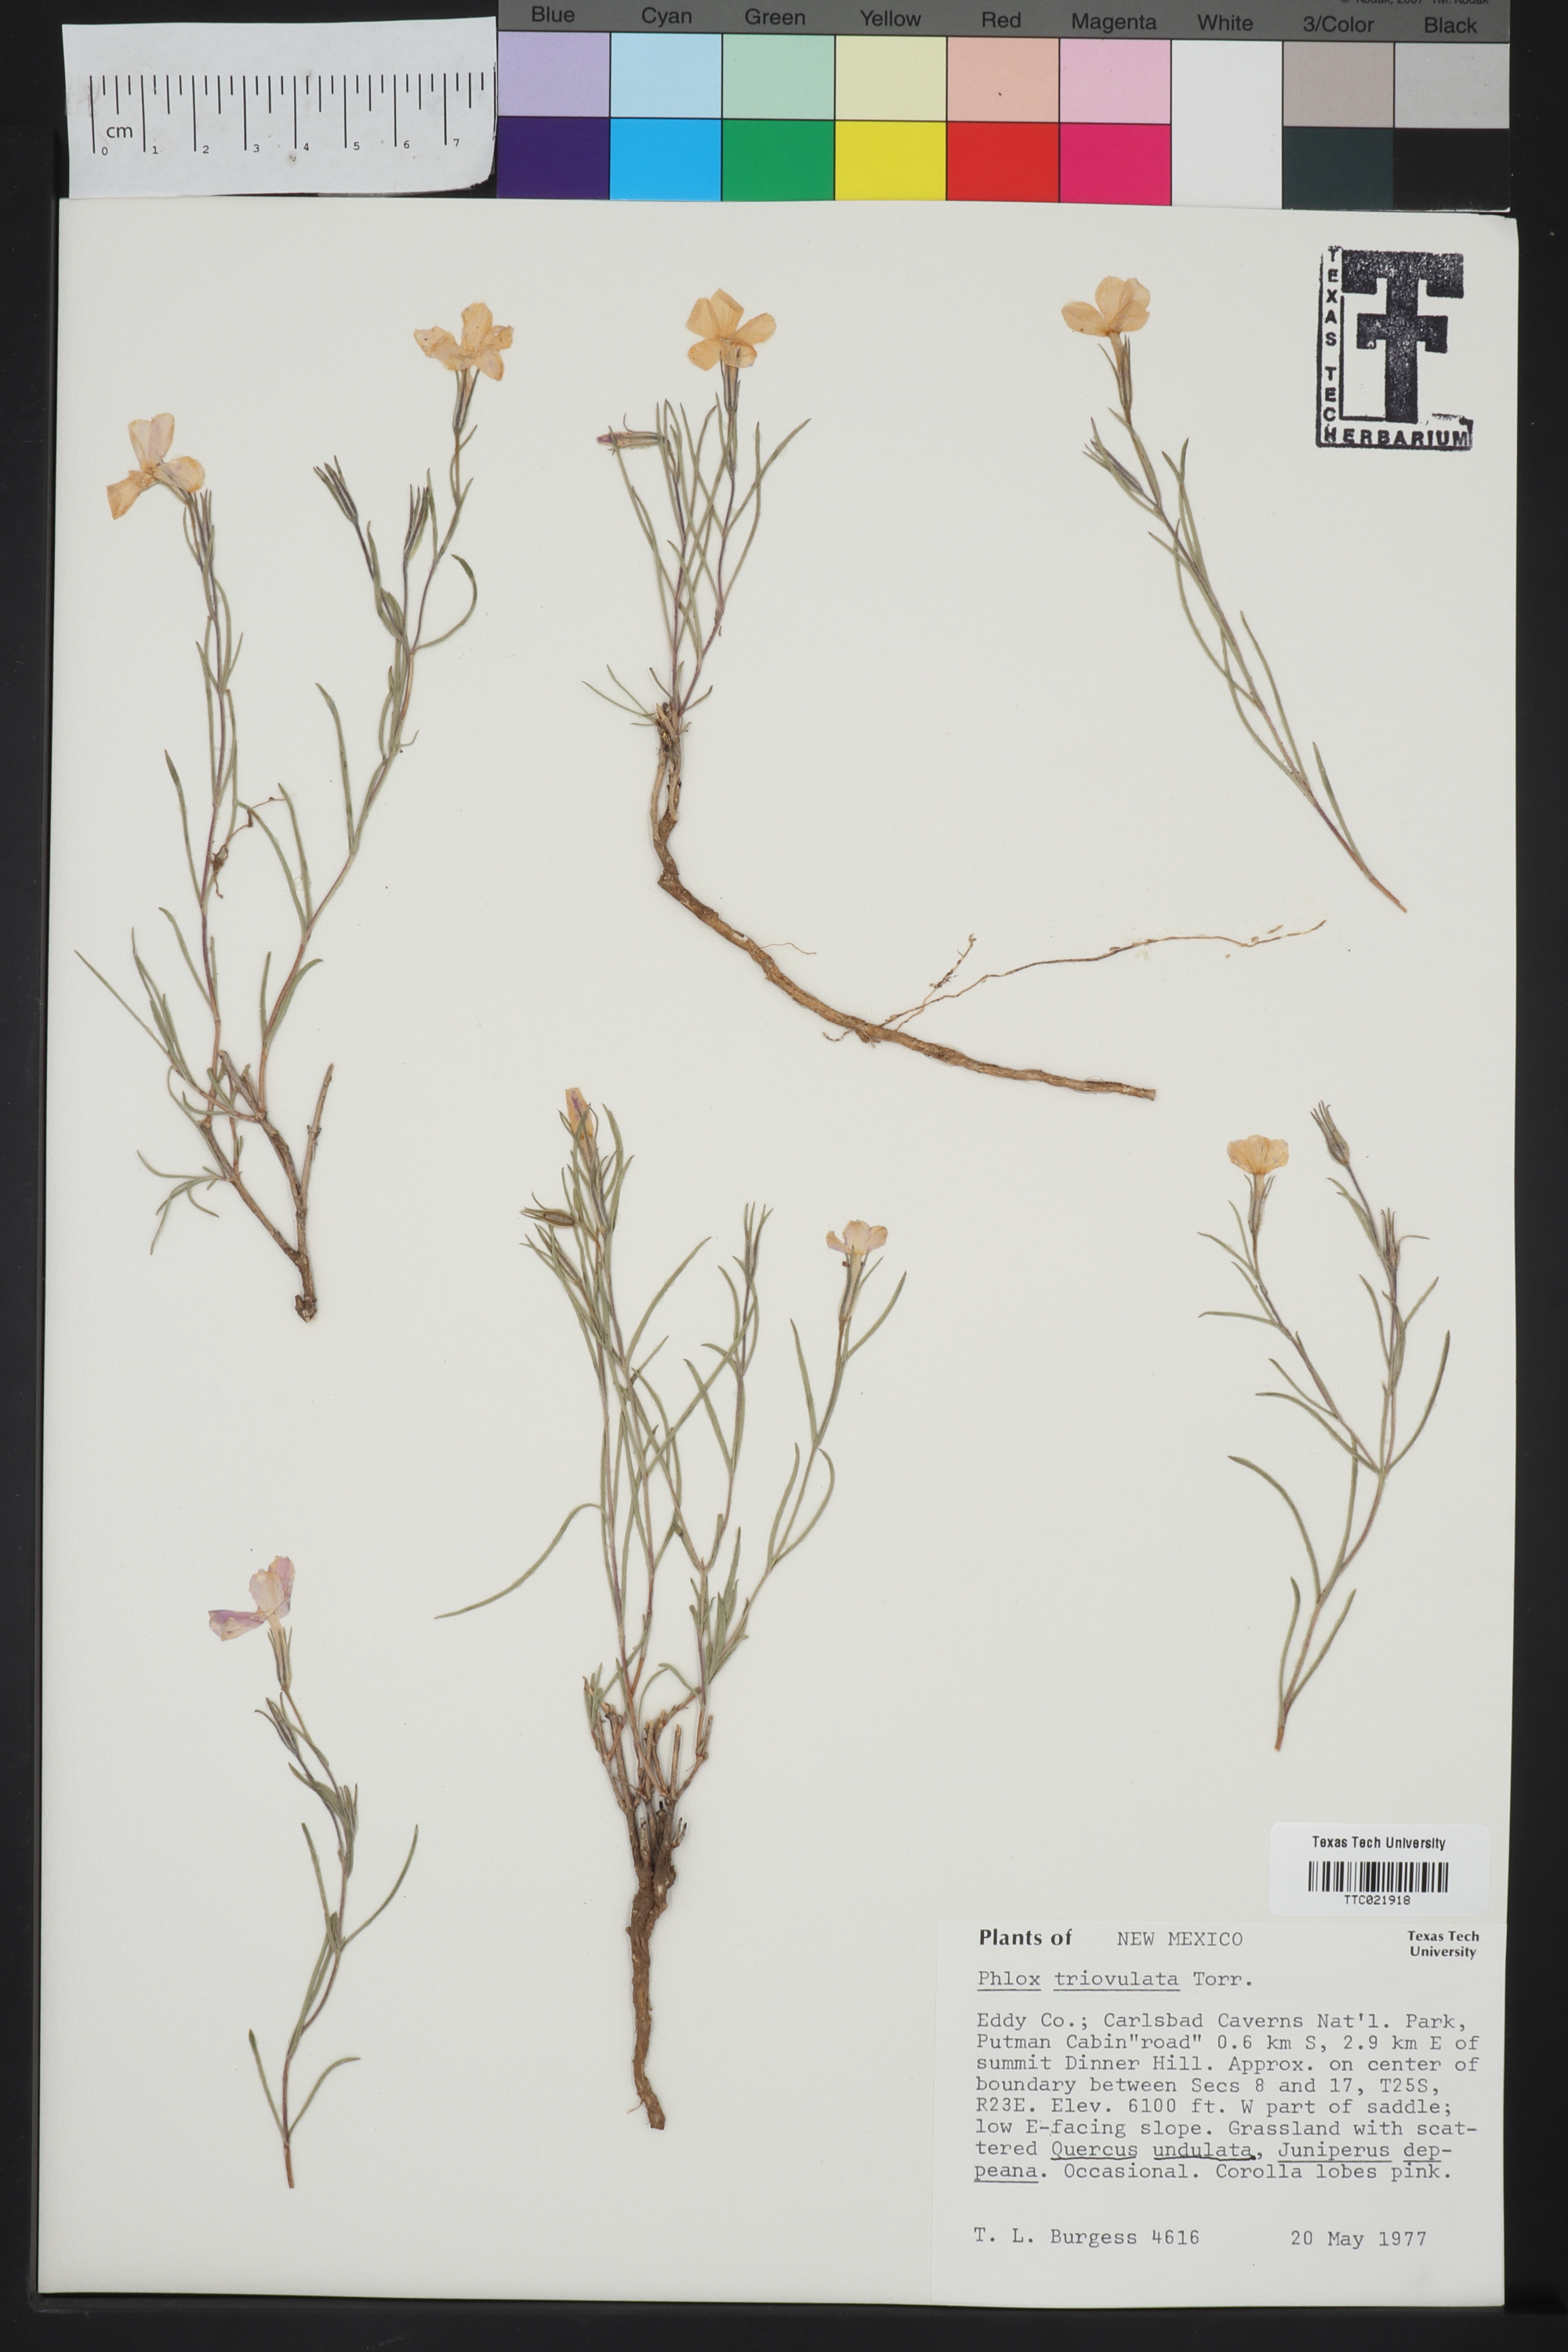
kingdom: Plantae
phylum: Tracheophyta
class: Magnoliopsida
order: Ericales
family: Polemoniaceae
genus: Phlox
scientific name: Phlox triovulata
